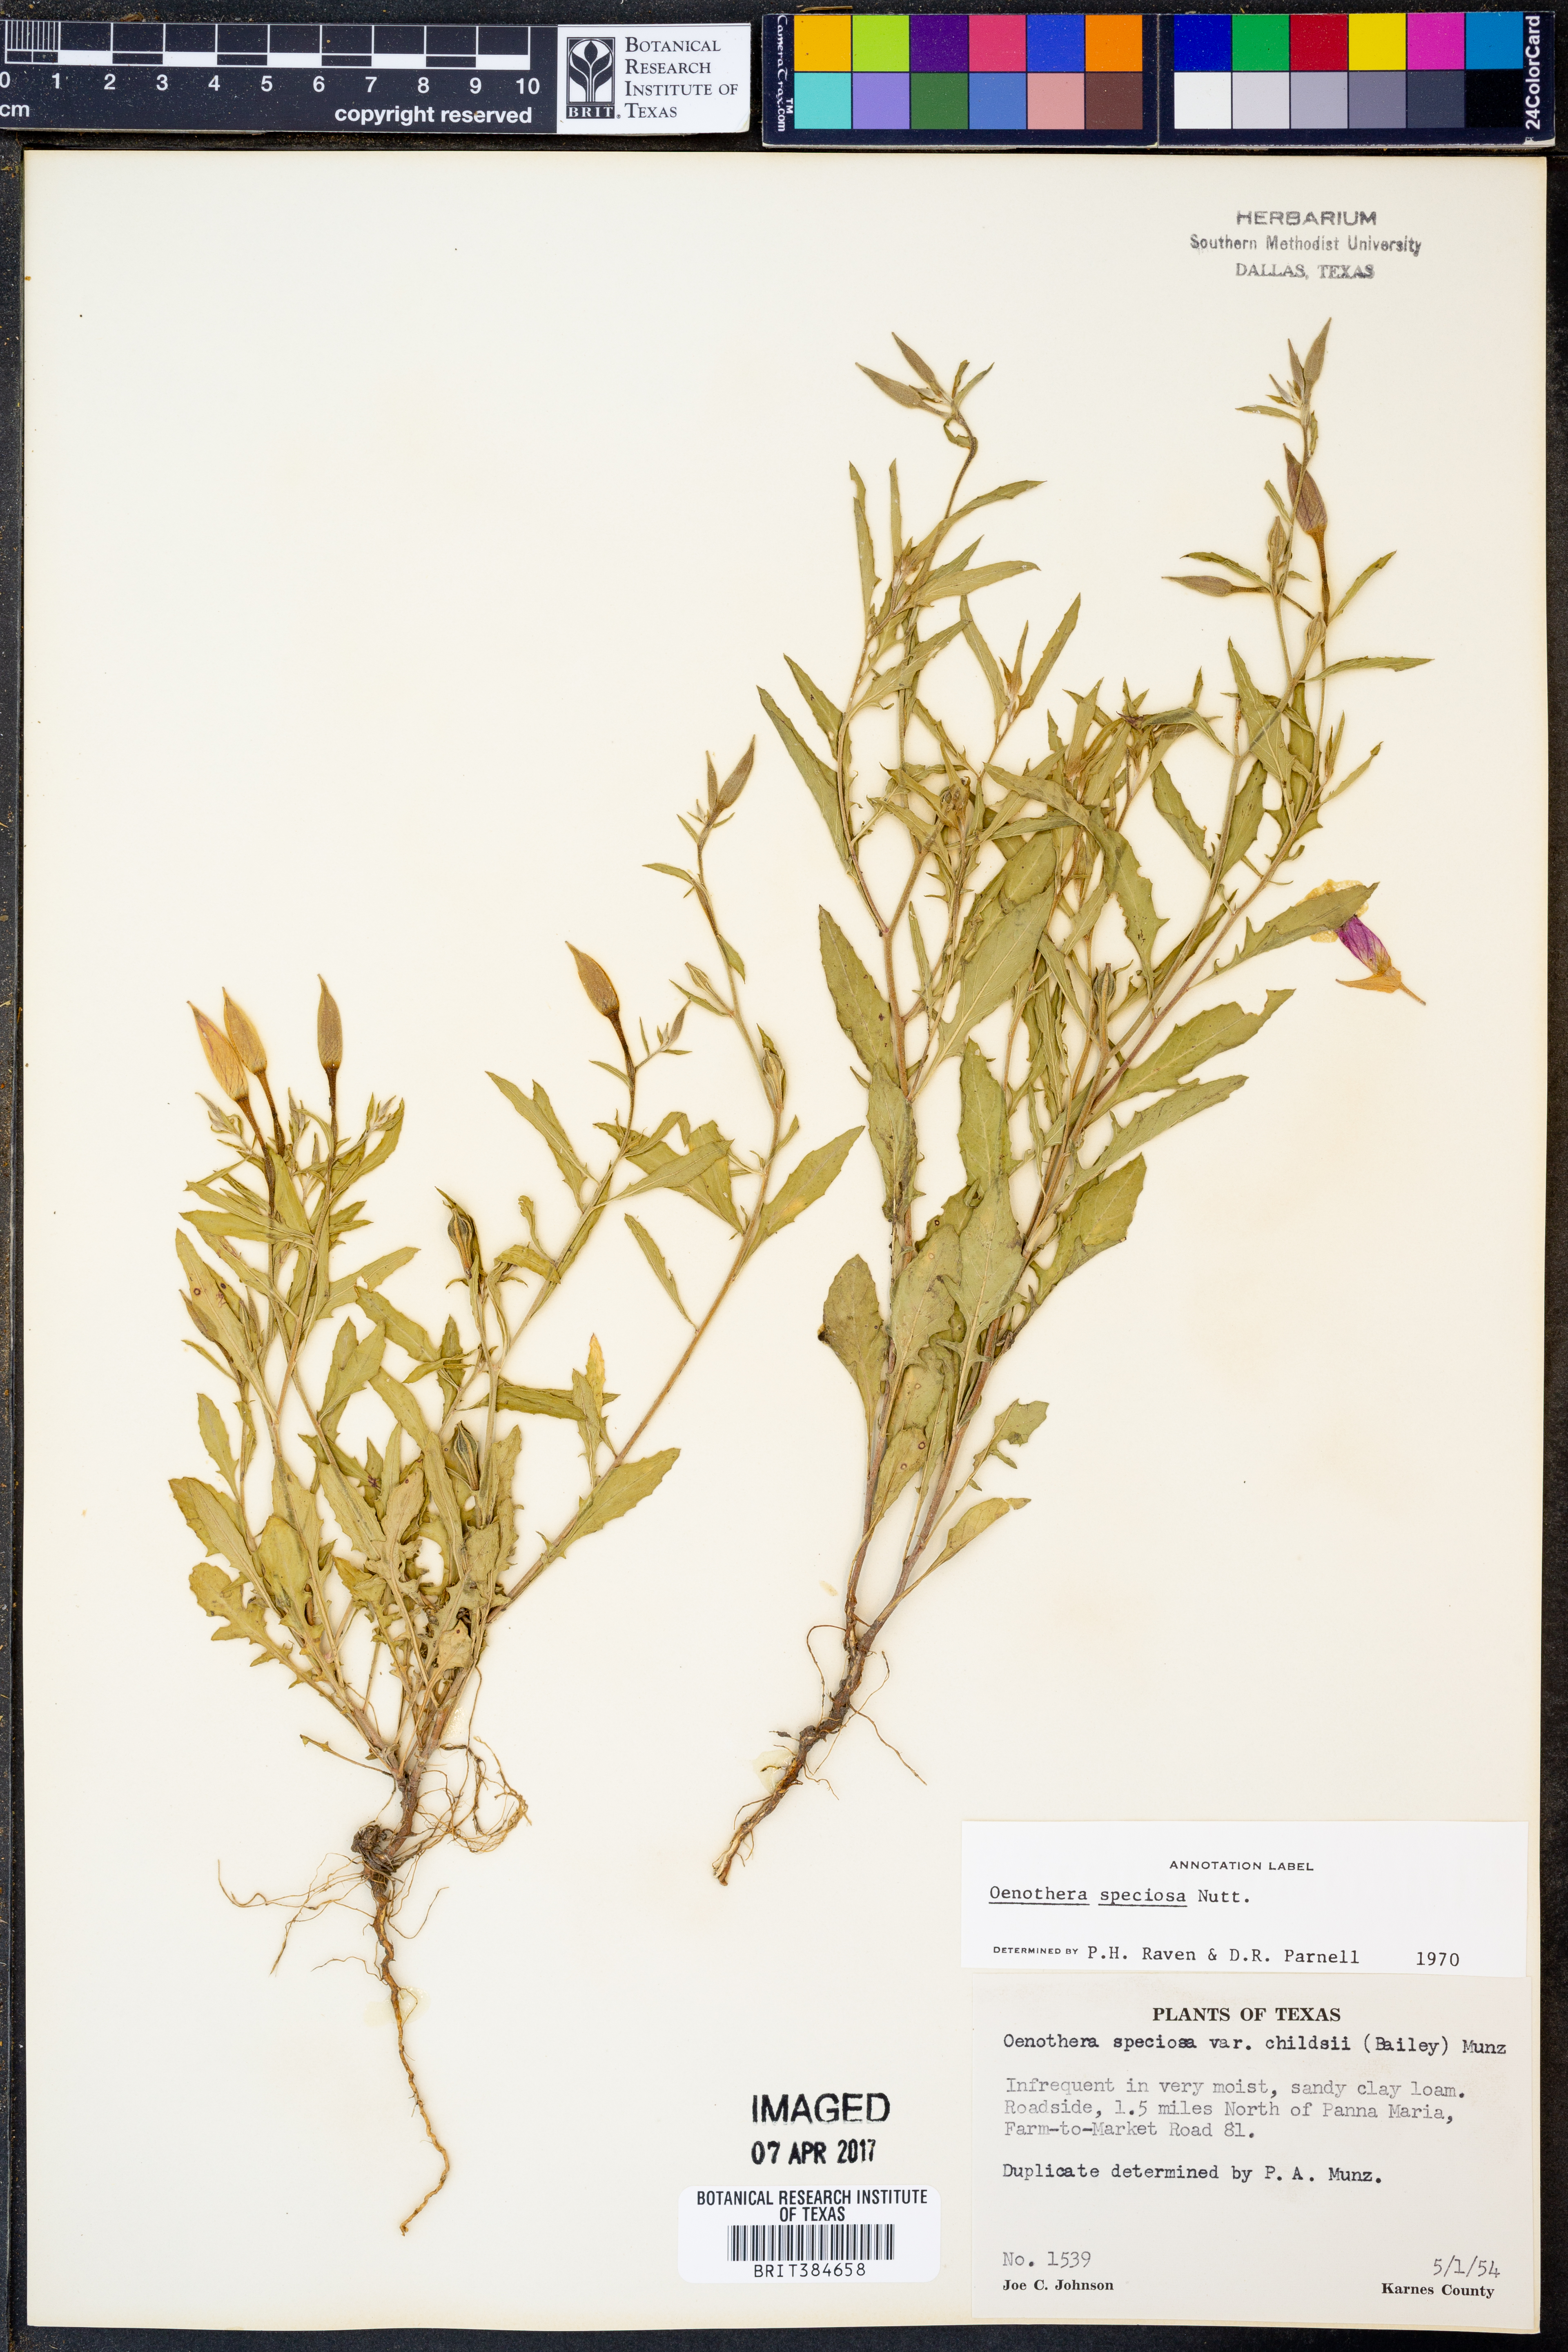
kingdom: Plantae
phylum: Tracheophyta
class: Magnoliopsida
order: Myrtales
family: Onagraceae
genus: Oenothera
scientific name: Oenothera speciosa
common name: White evening-primrose
